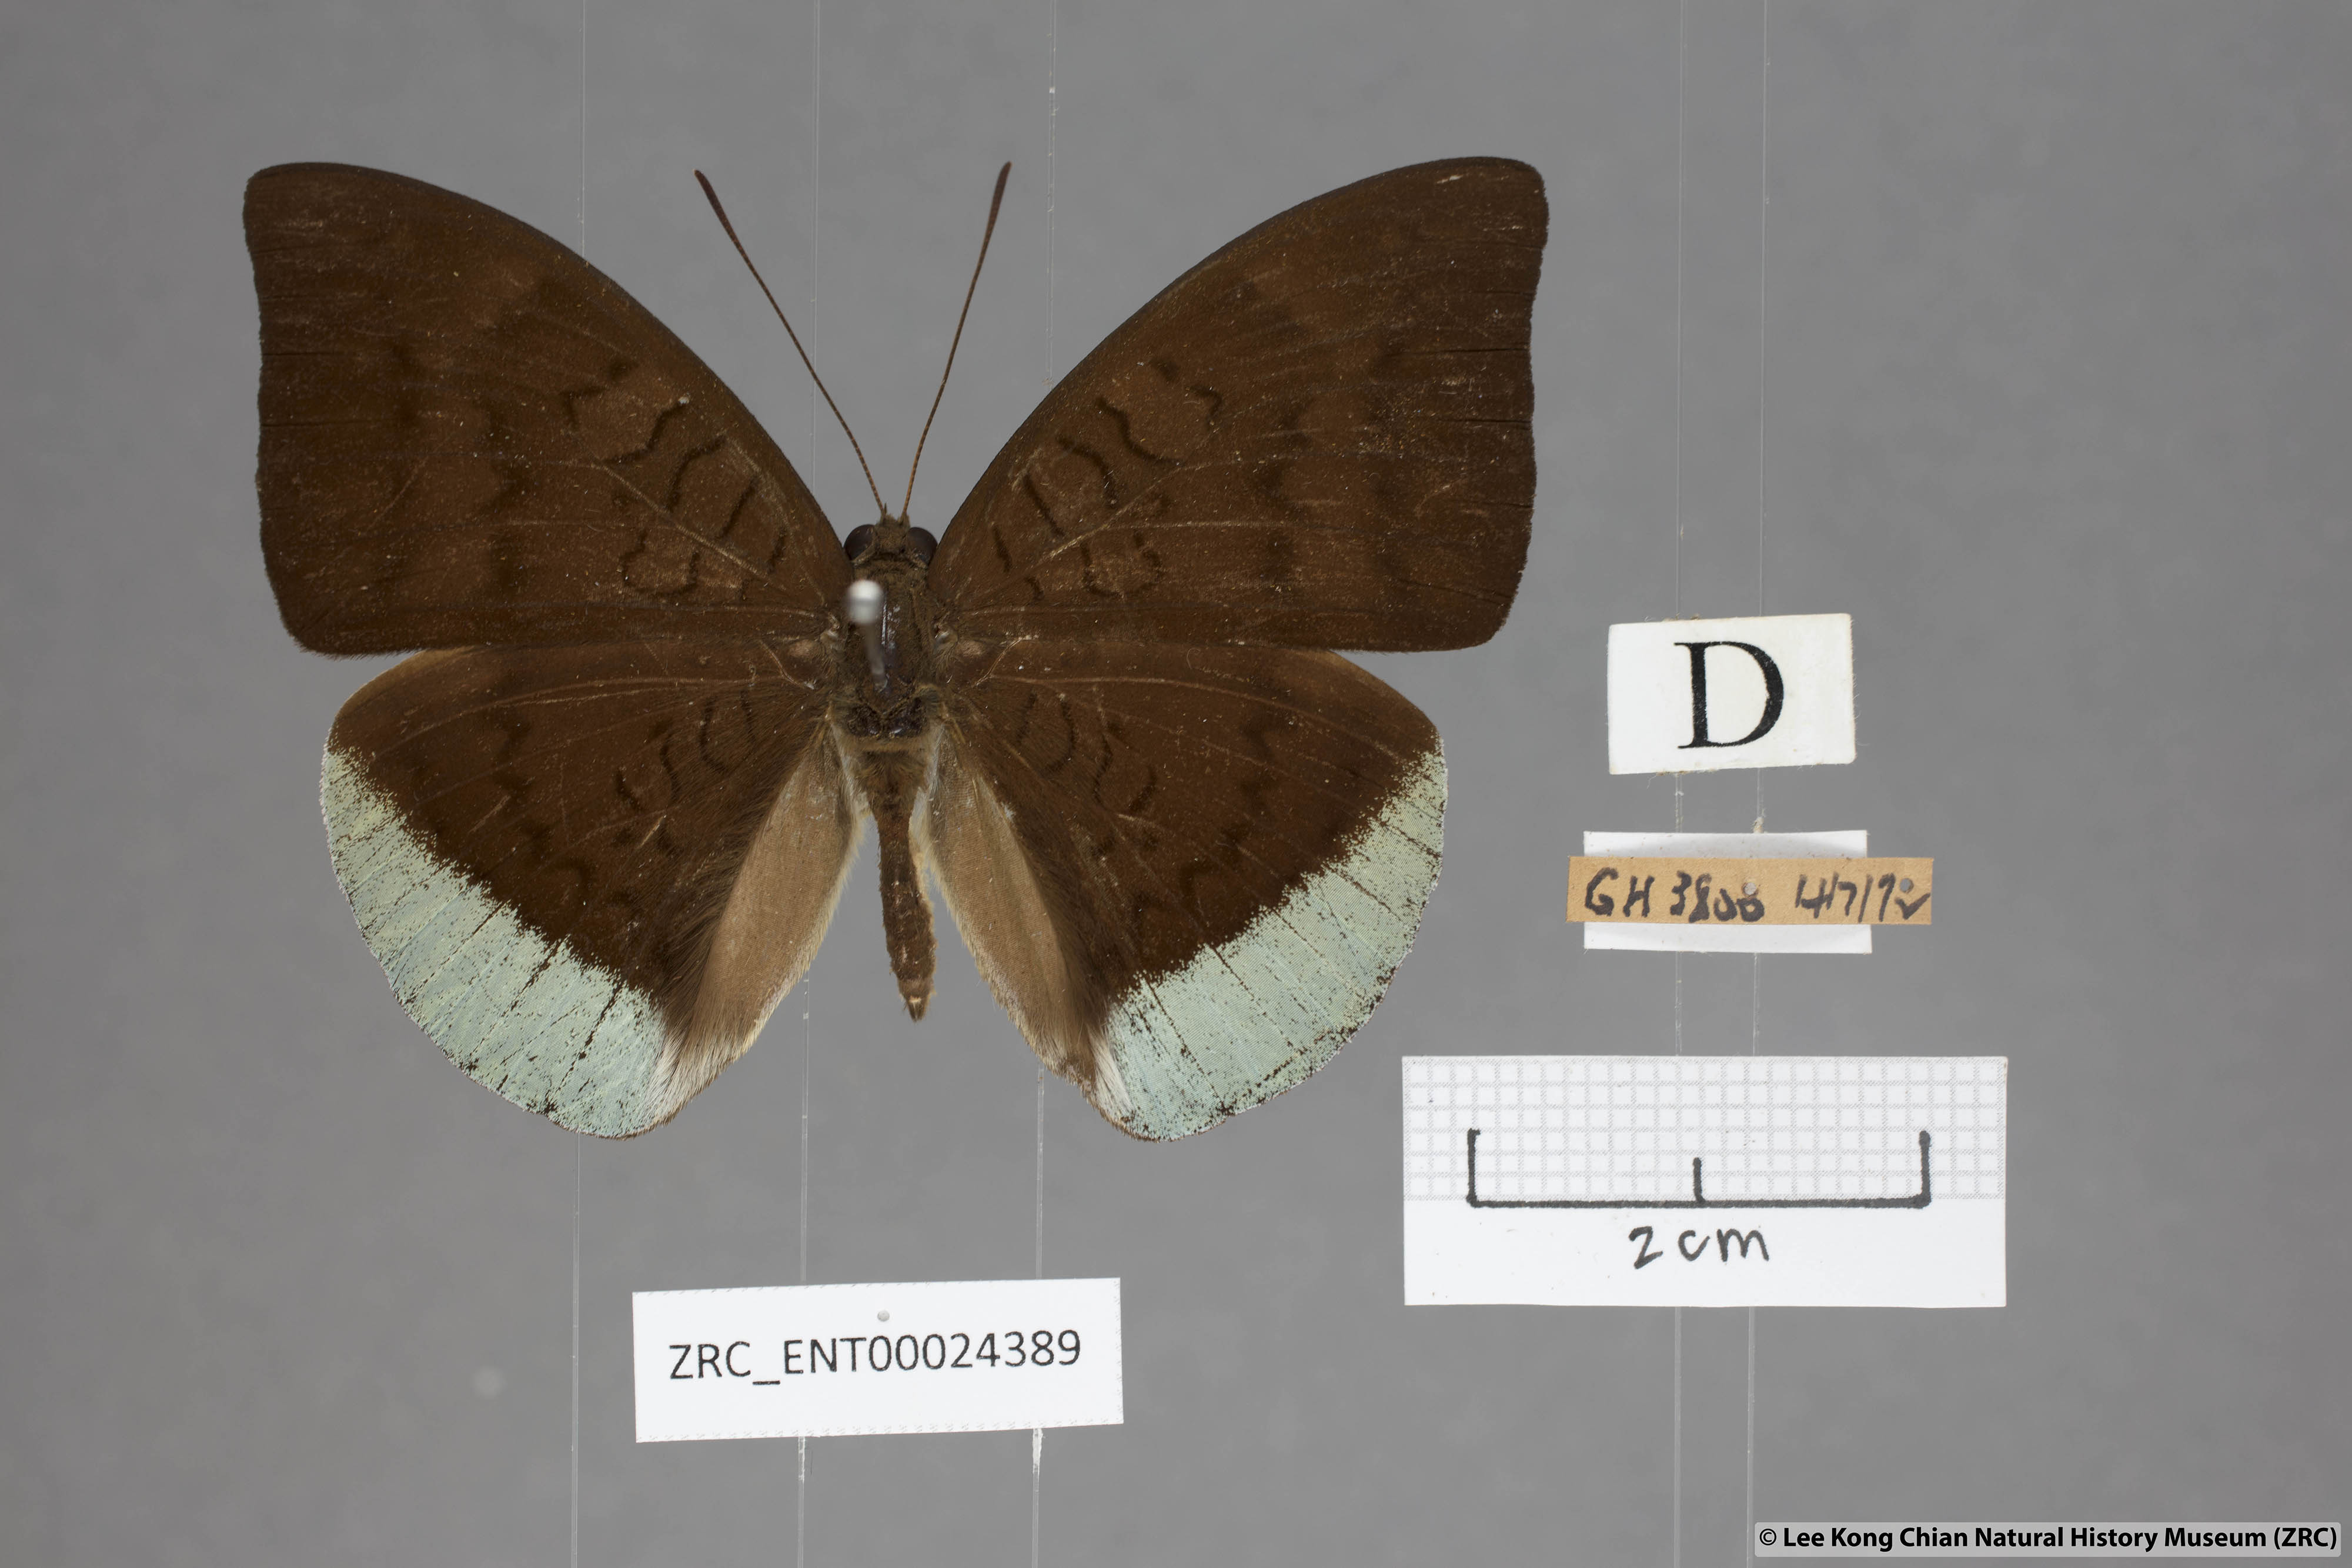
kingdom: Animalia
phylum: Arthropoda
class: Insecta
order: Lepidoptera
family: Nymphalidae
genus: Tanaecia
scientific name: Tanaecia julii
